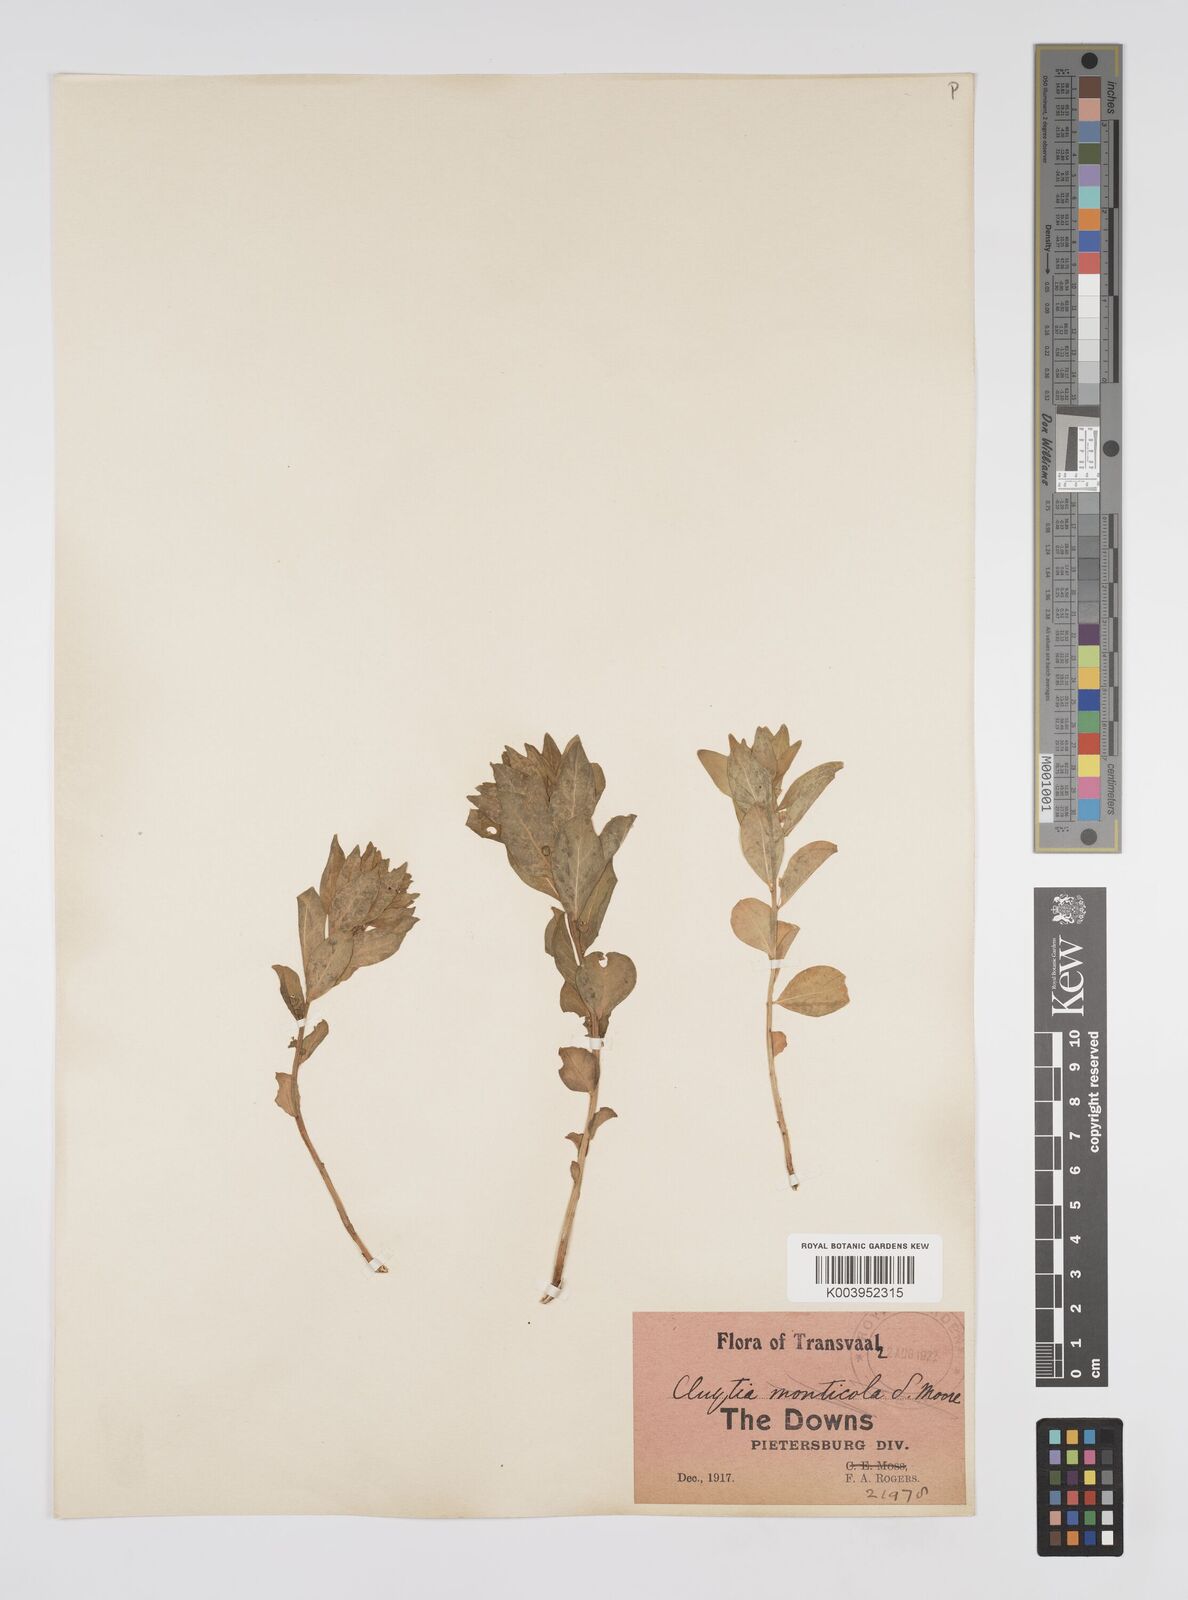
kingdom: Plantae
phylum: Tracheophyta
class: Magnoliopsida
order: Malpighiales
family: Peraceae
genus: Clutia
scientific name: Clutia
